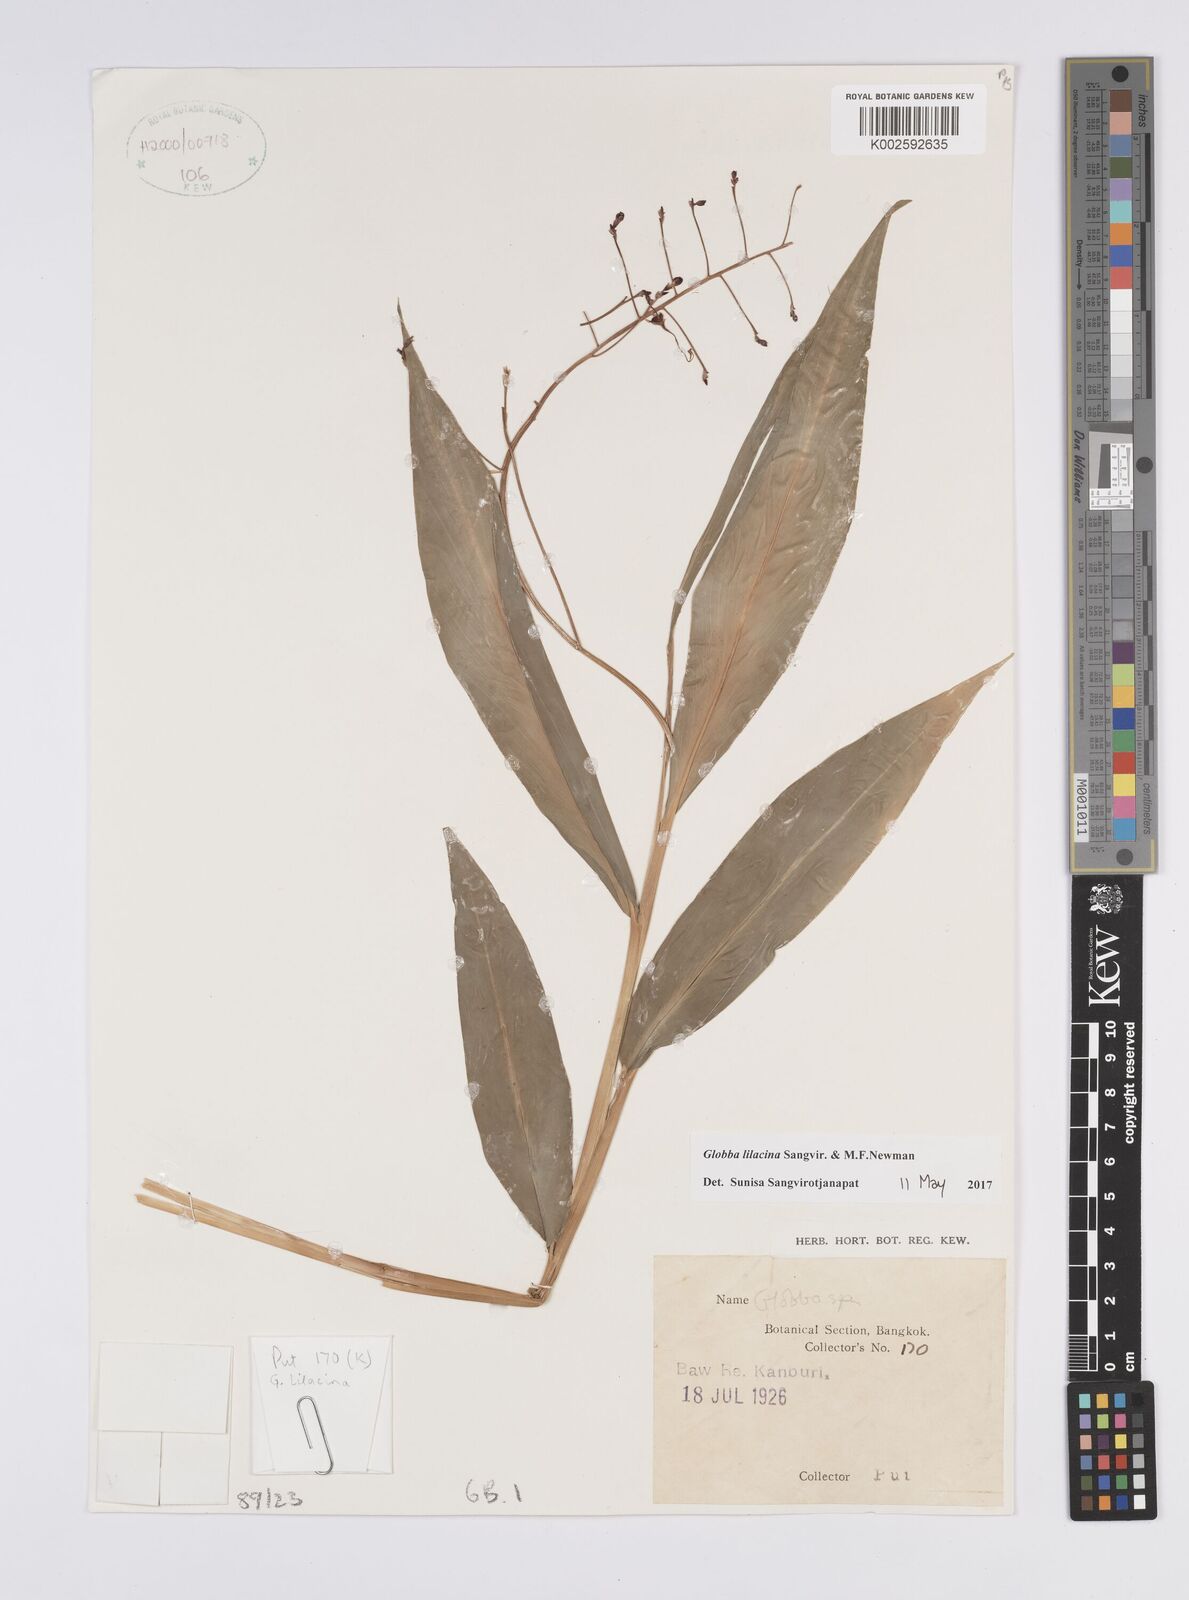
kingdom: Plantae
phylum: Tracheophyta
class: Liliopsida
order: Zingiberales
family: Zingiberaceae
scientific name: Zingiberaceae
